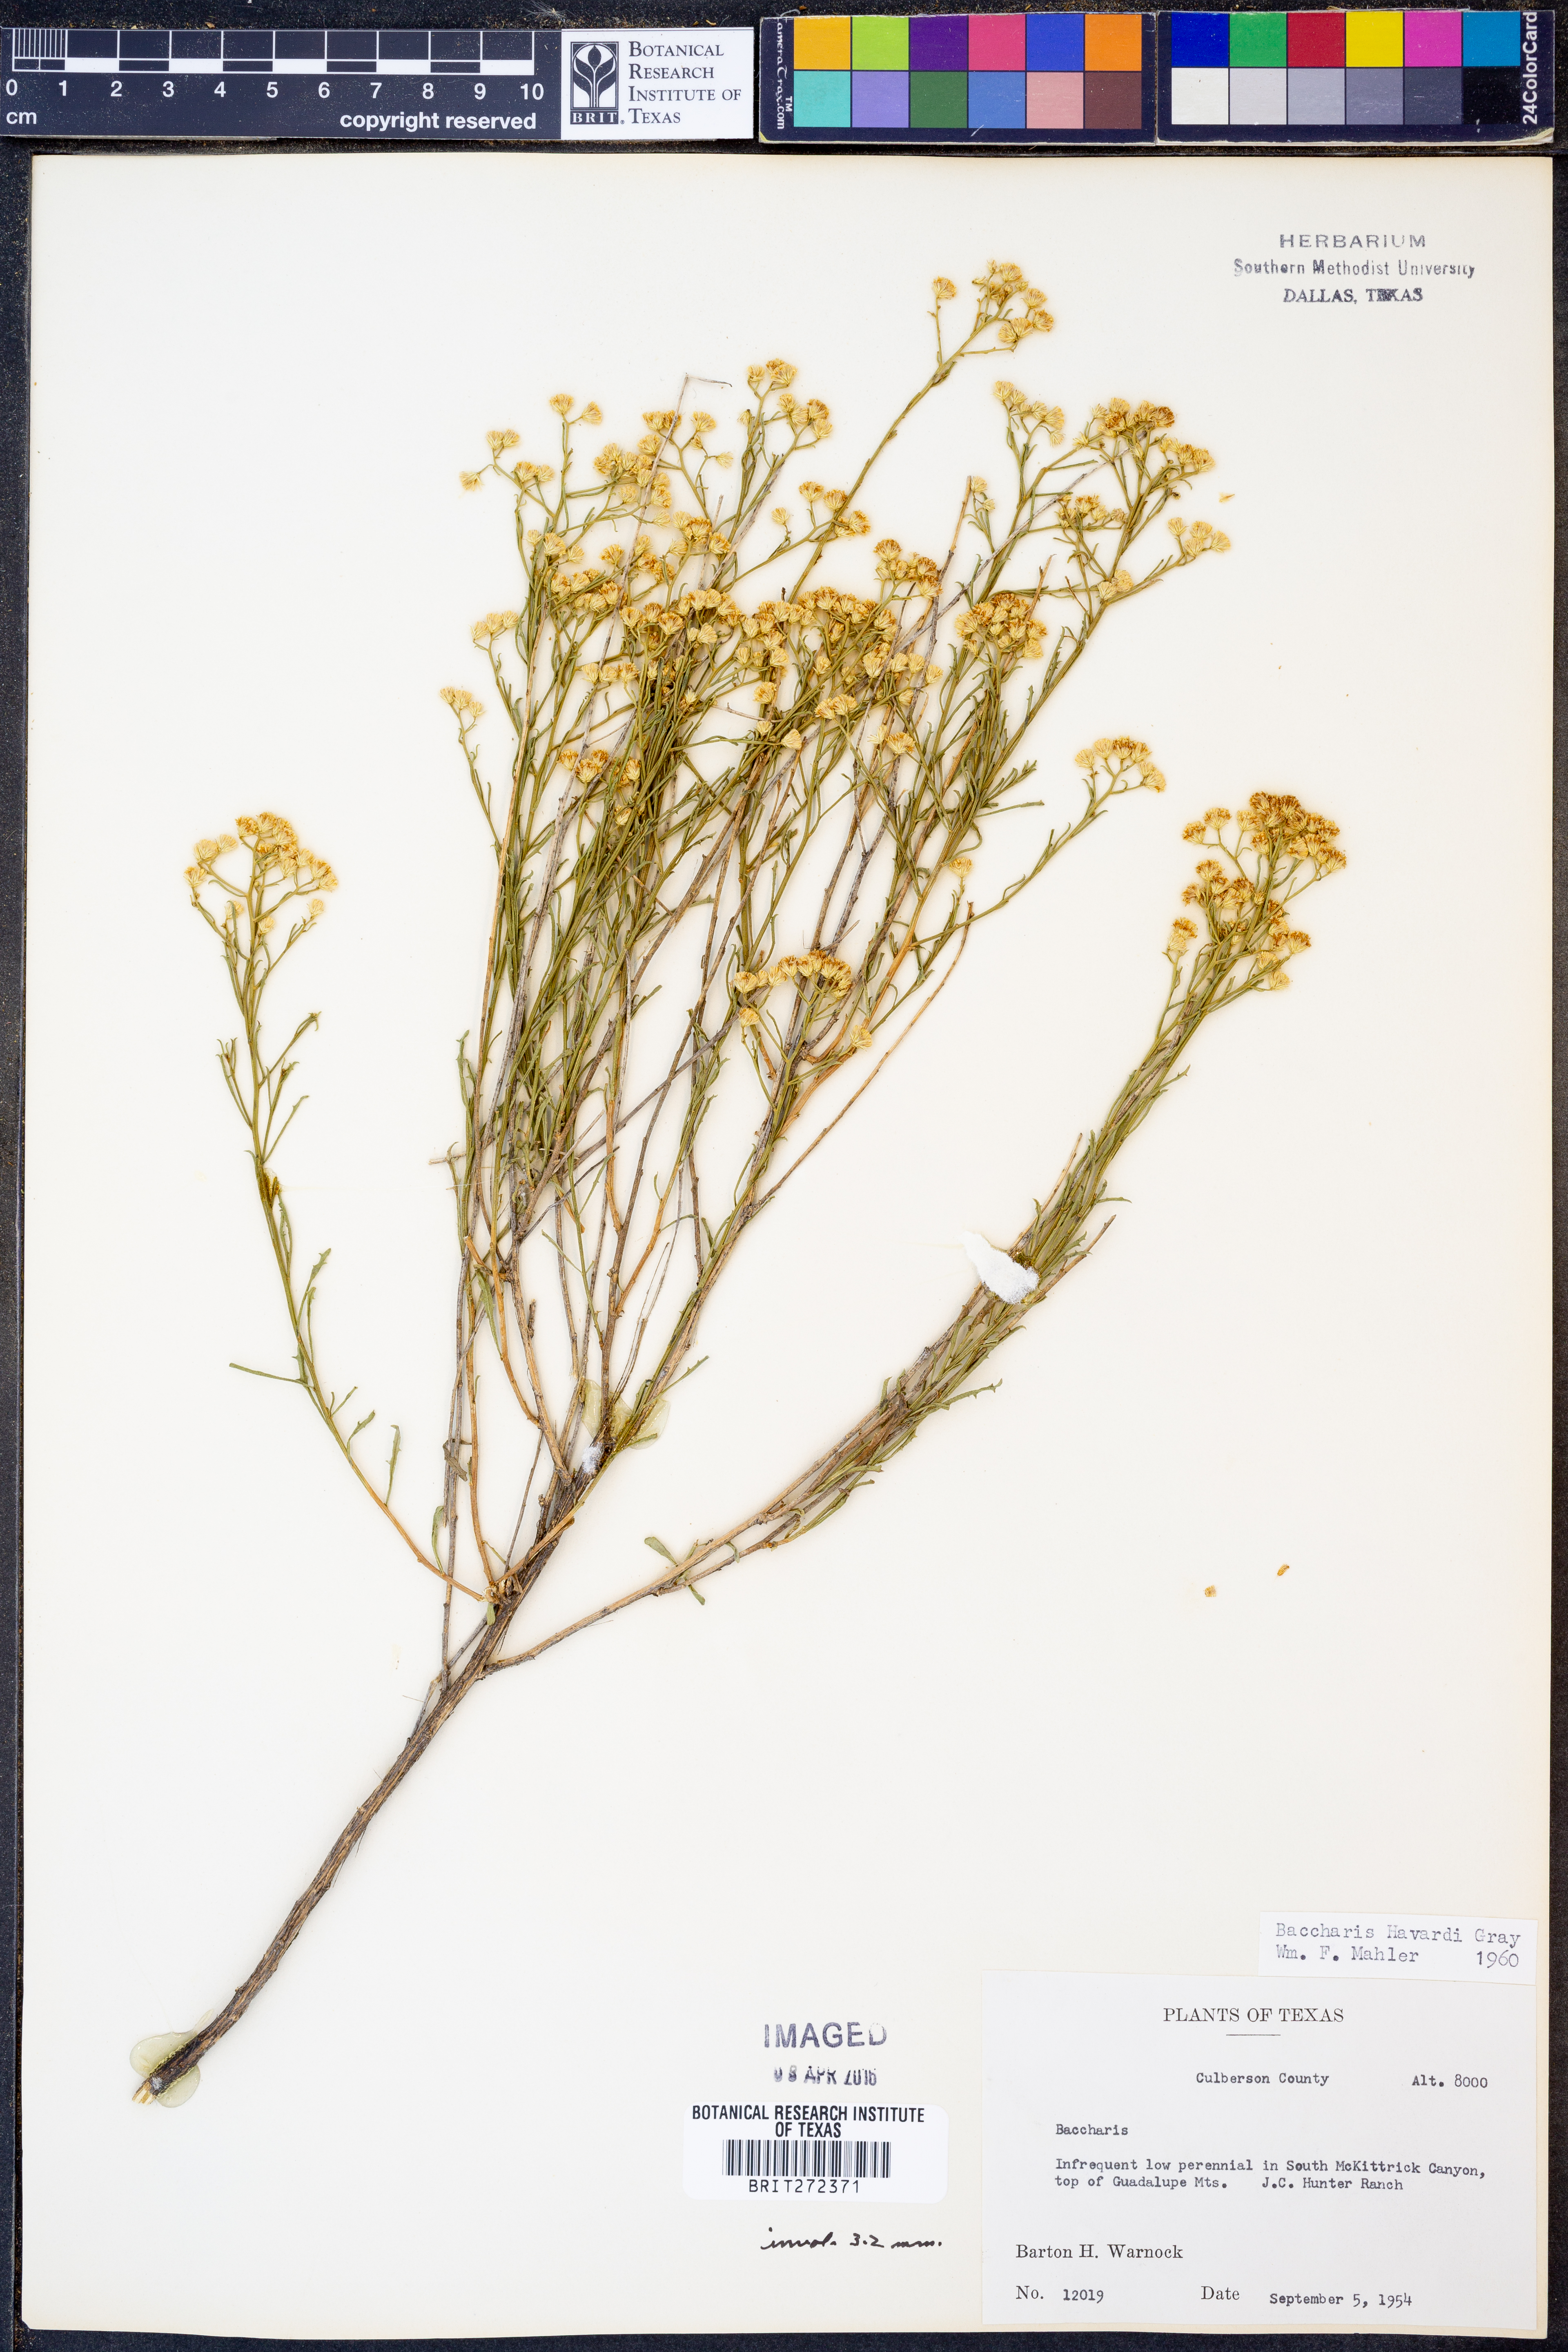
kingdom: Plantae
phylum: Tracheophyta
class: Magnoliopsida
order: Asterales
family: Asteraceae
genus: Baccharis
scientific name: Baccharis havardii
